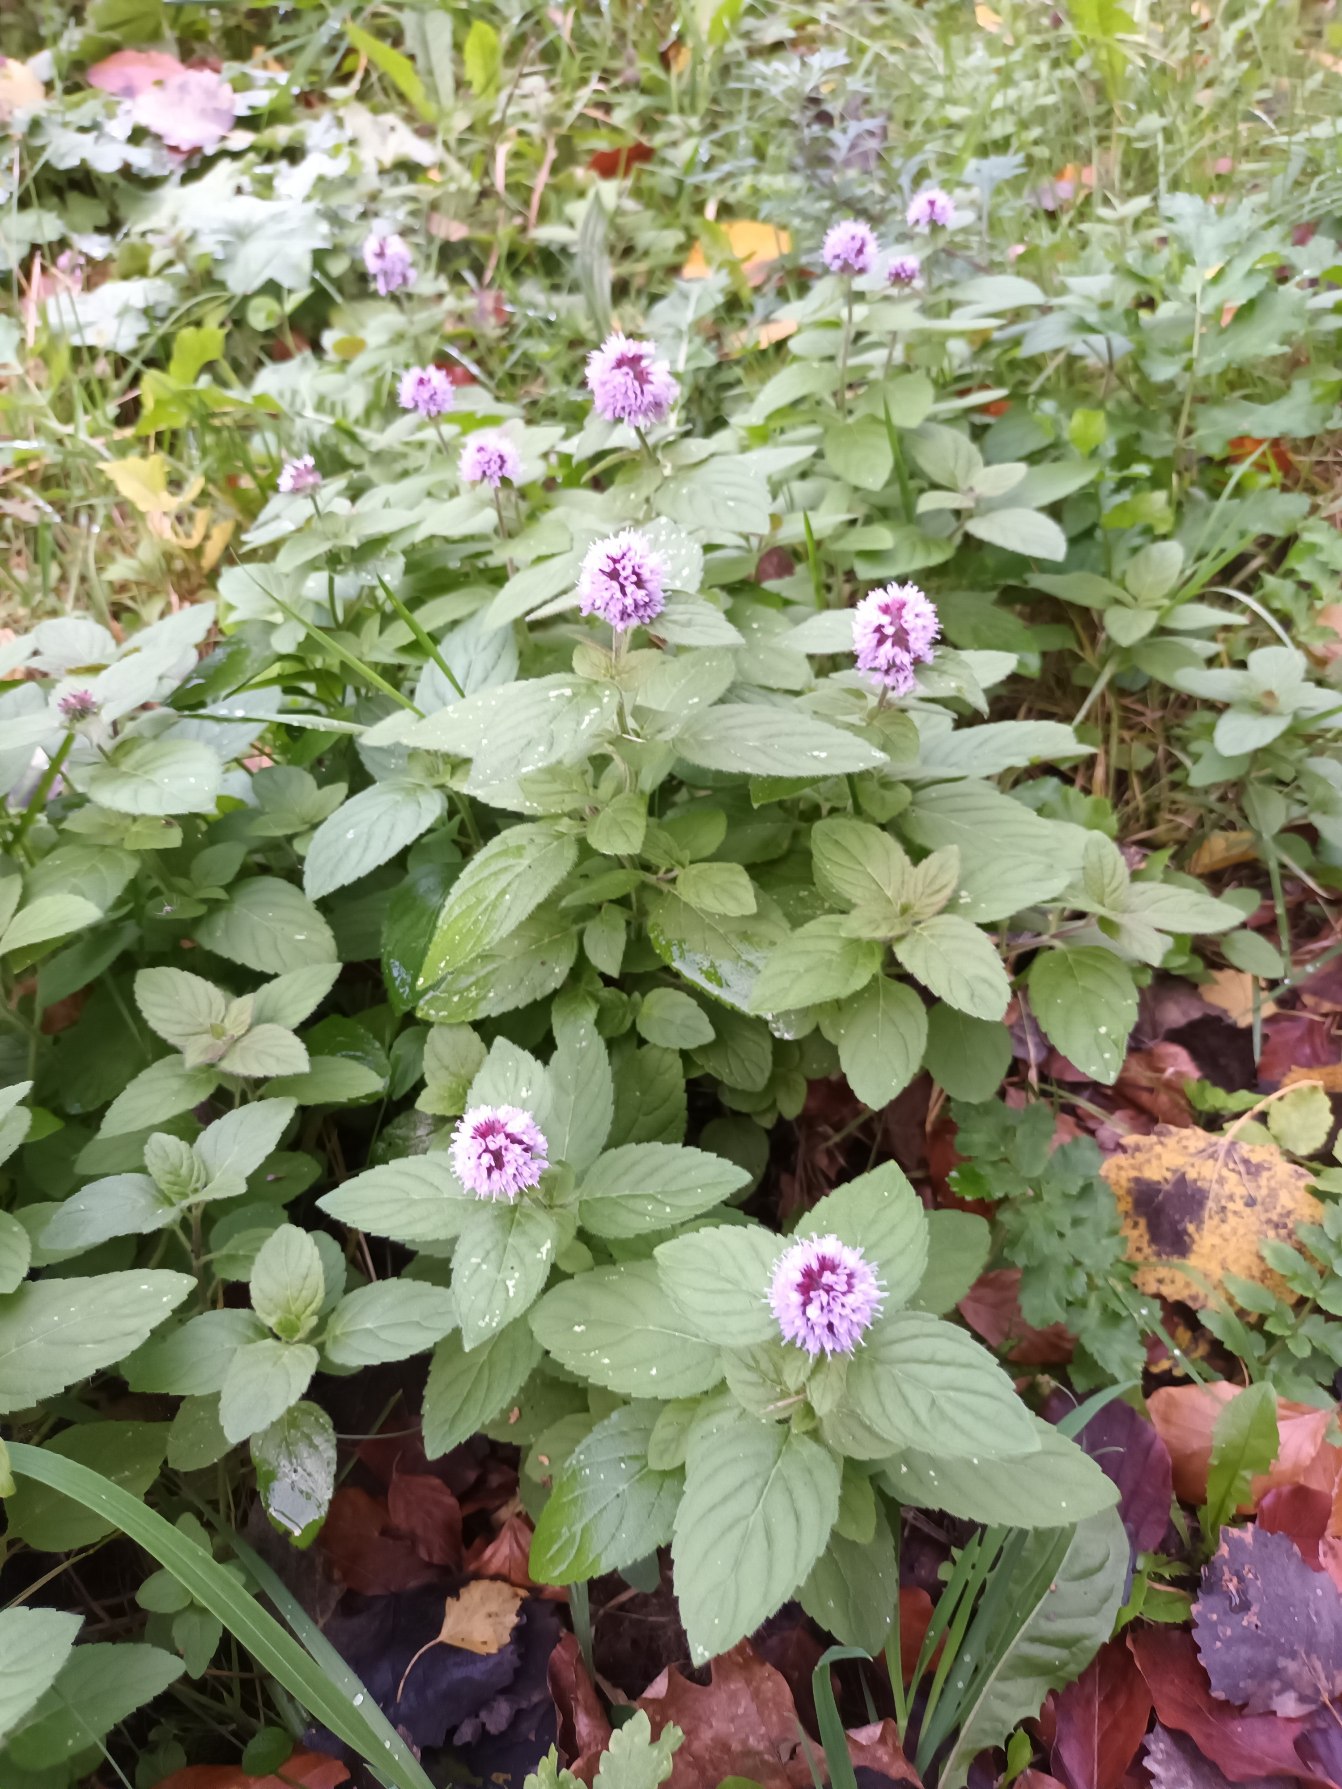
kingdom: Plantae
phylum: Tracheophyta
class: Magnoliopsida
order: Lamiales
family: Lamiaceae
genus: Mentha
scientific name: Mentha aquatica
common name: Vand-mynte
